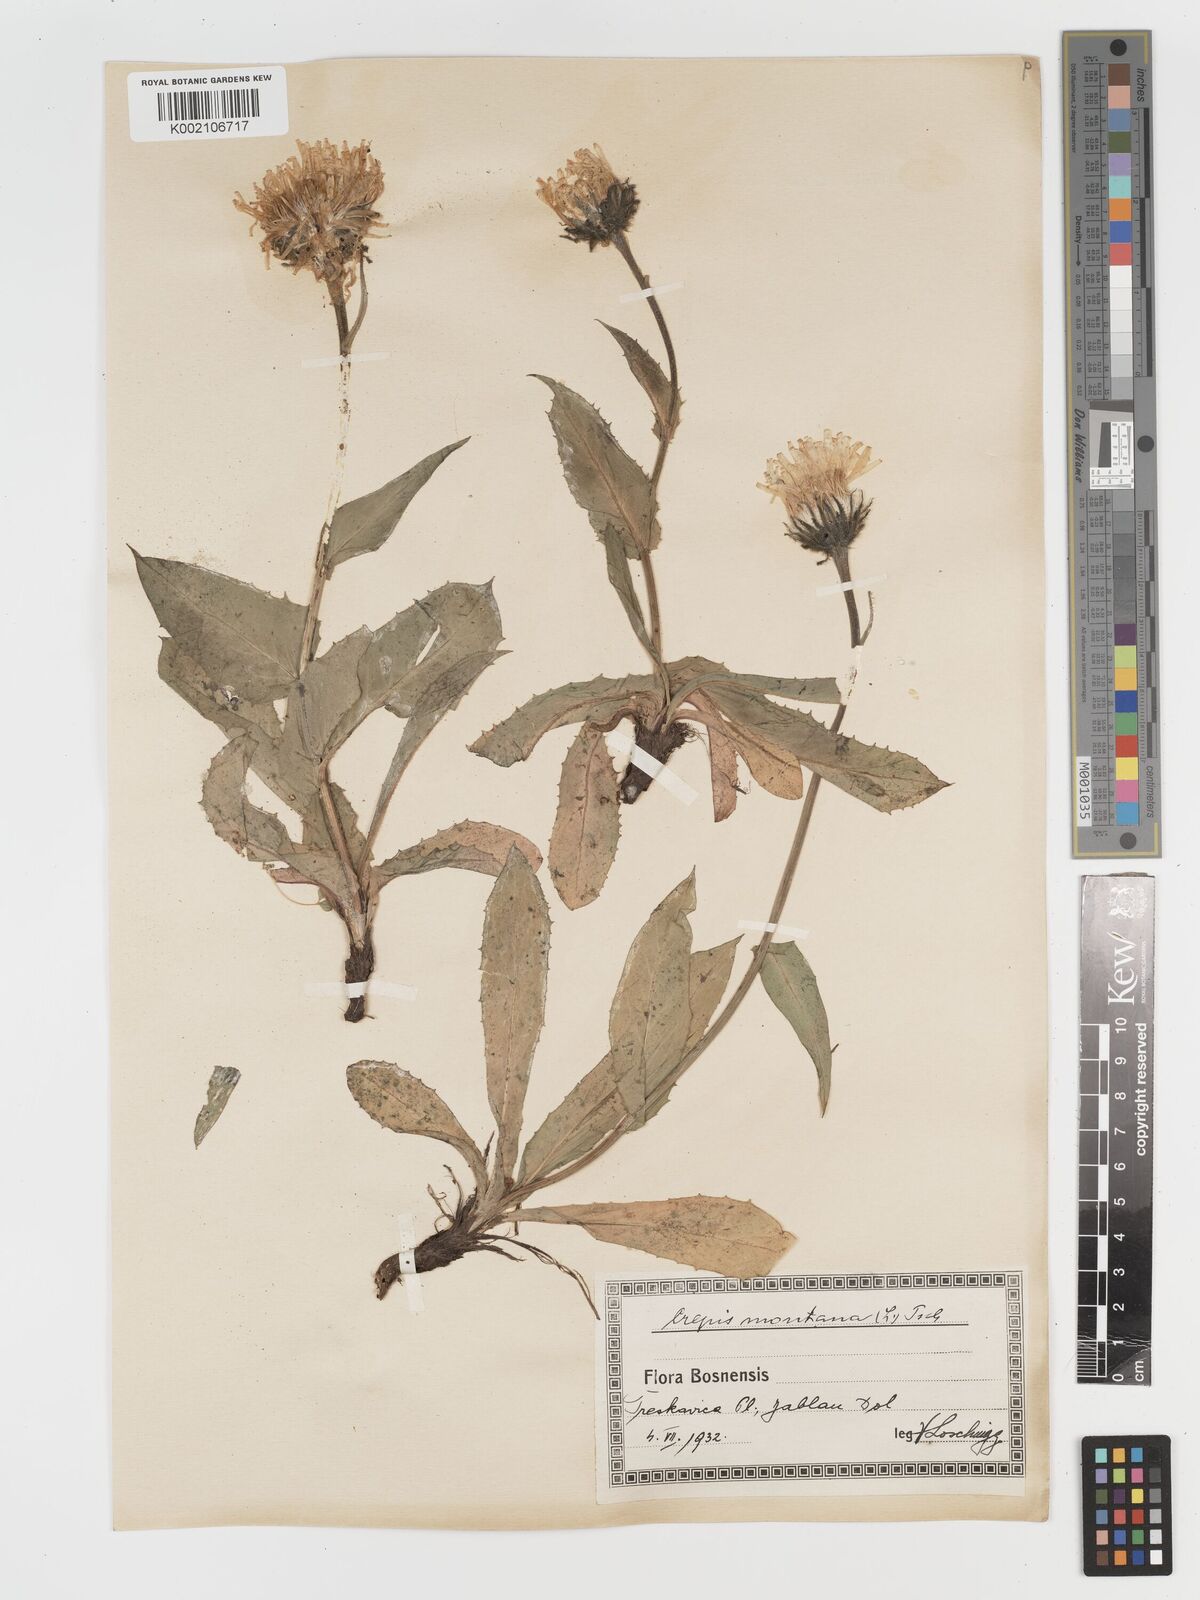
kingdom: Plantae
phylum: Tracheophyta
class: Magnoliopsida
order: Asterales
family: Asteraceae
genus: Crepis
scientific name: Crepis pontana
